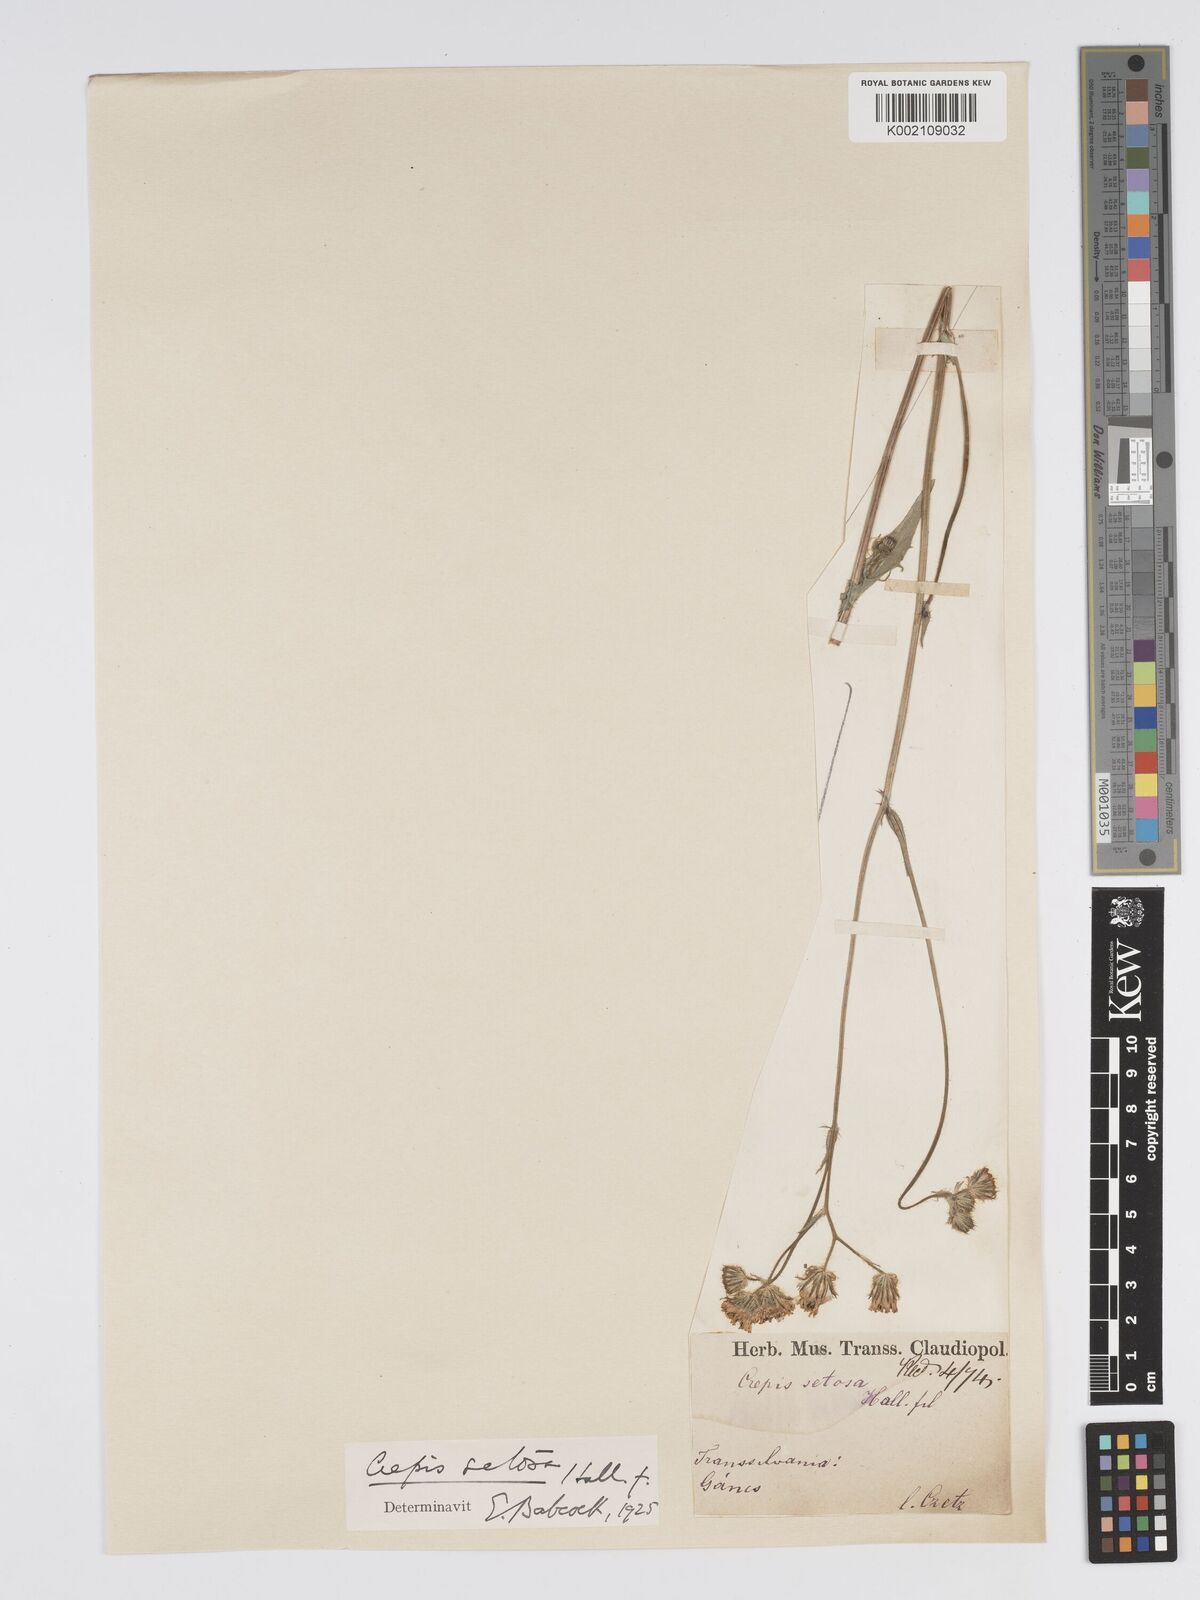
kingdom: Plantae
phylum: Tracheophyta
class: Magnoliopsida
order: Asterales
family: Asteraceae
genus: Crepis
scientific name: Crepis setosa
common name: Bristly hawk's-beard
